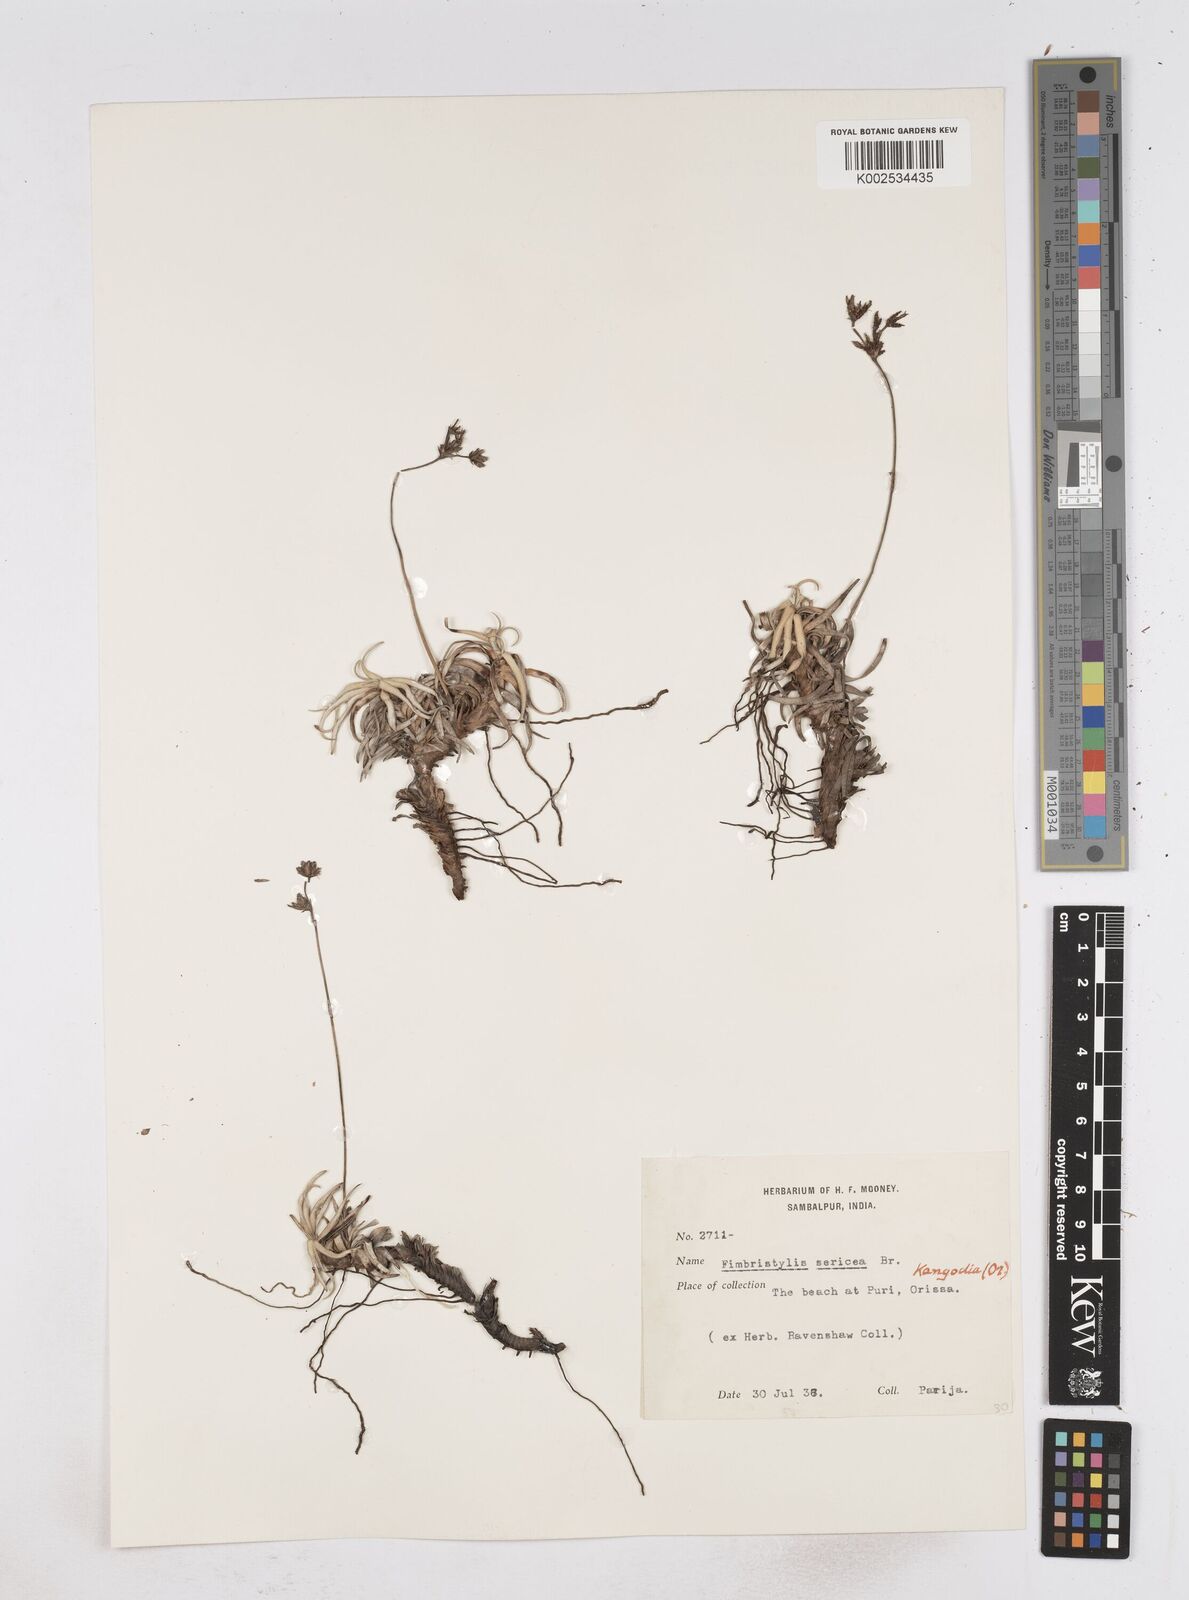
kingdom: Plantae
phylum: Tracheophyta
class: Liliopsida
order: Poales
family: Cyperaceae
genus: Fimbristylis
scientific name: Fimbristylis sericea
